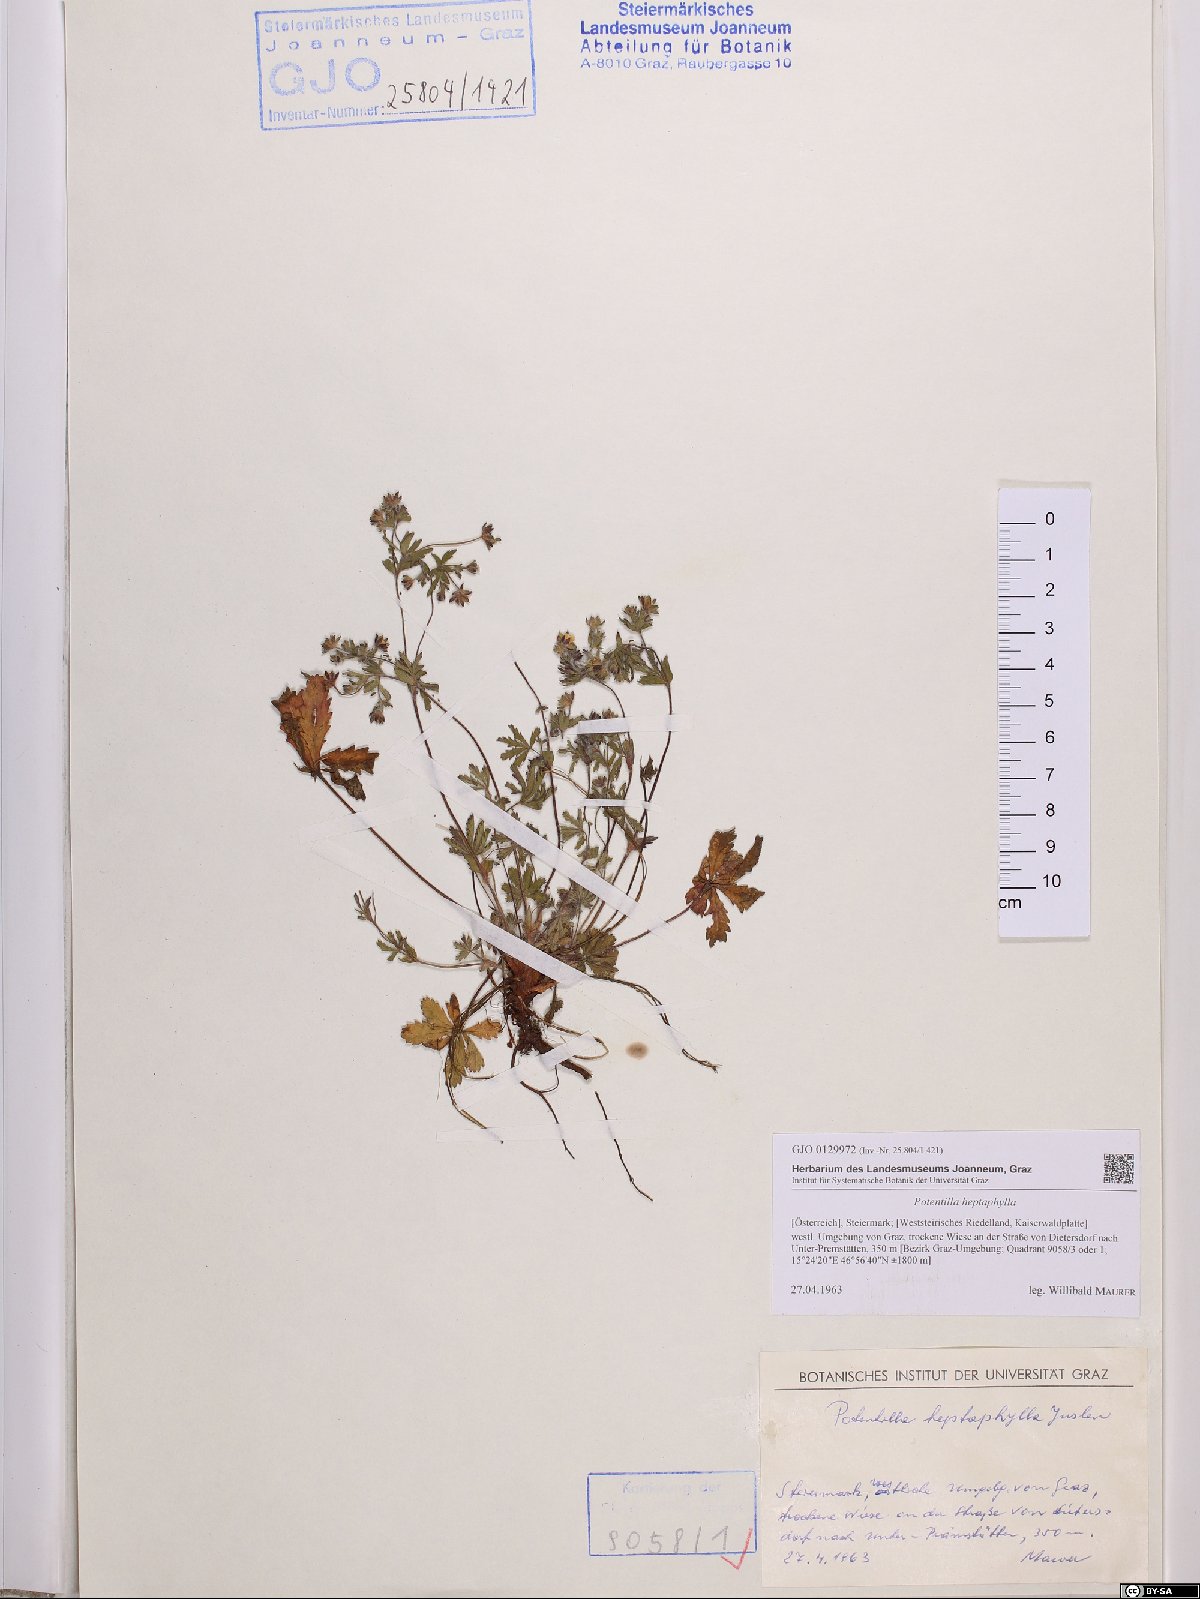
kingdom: Plantae
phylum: Tracheophyta
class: Magnoliopsida
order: Rosales
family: Rosaceae
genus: Potentilla
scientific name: Potentilla heptaphylla
